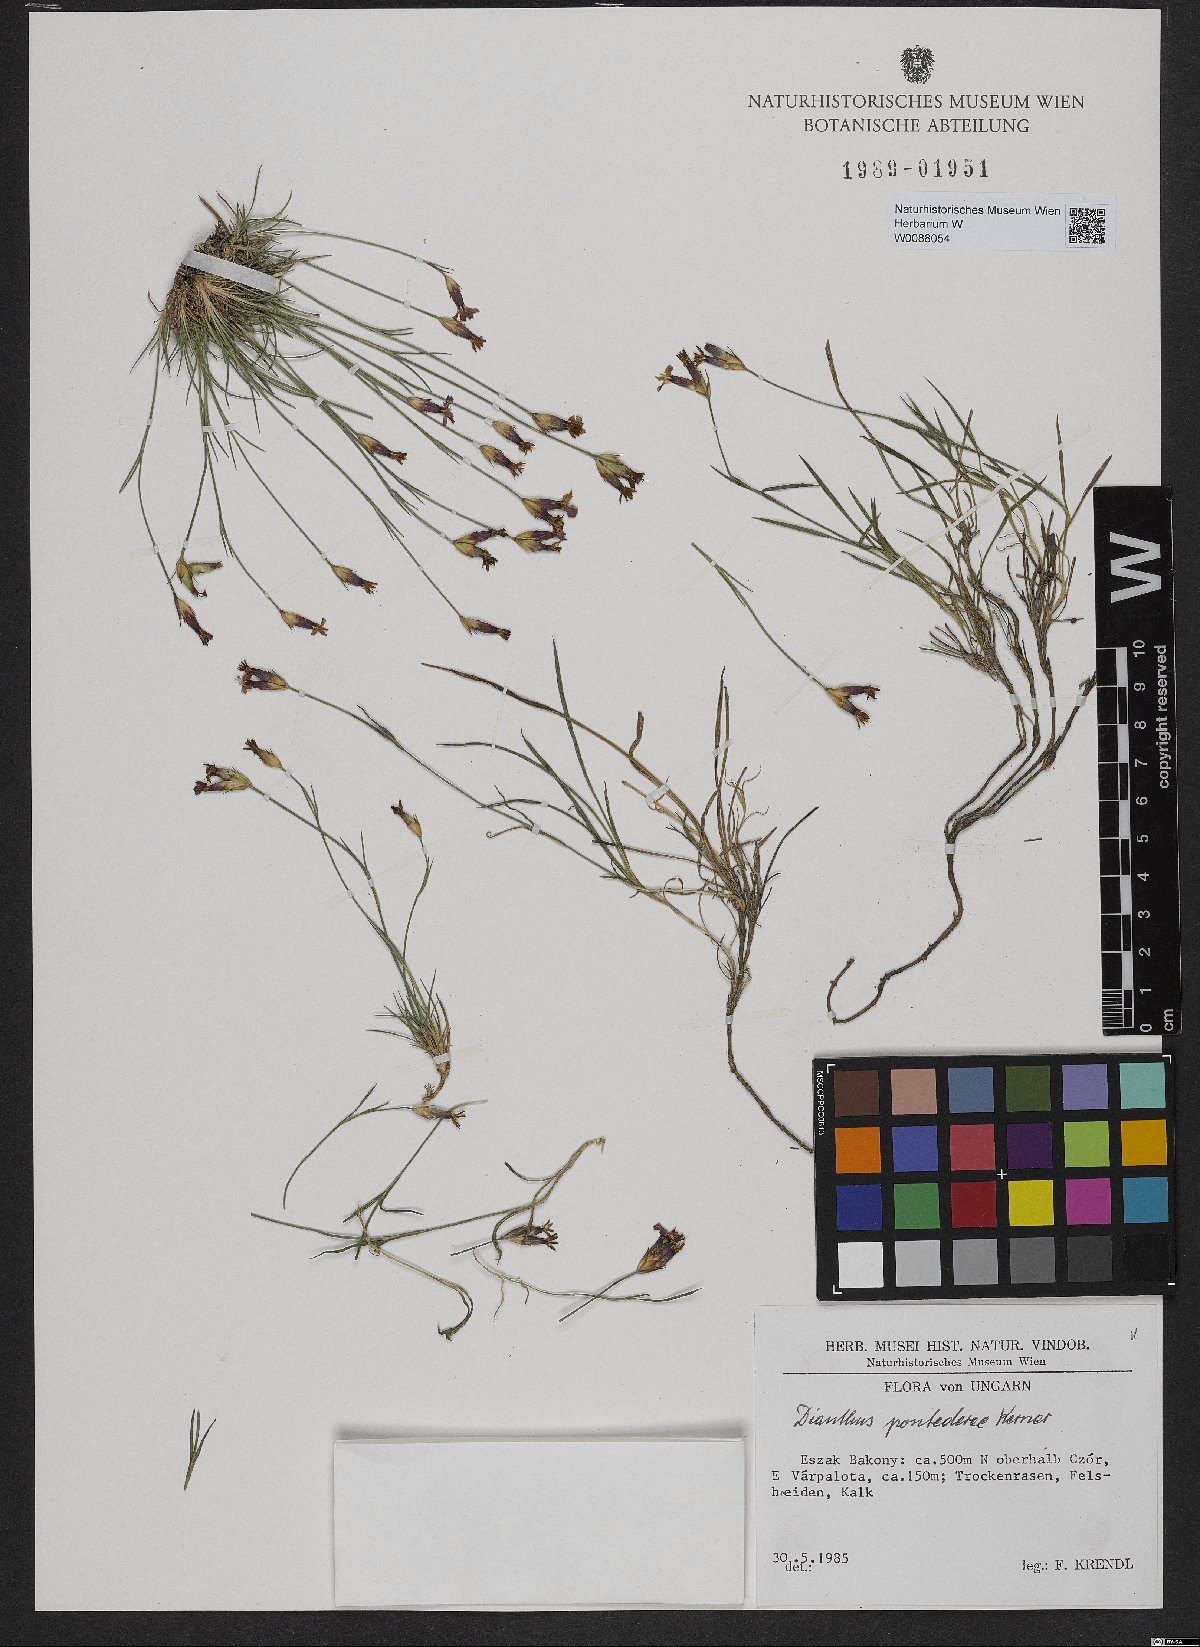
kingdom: Plantae
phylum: Tracheophyta
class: Magnoliopsida
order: Caryophyllales
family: Caryophyllaceae
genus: Dianthus
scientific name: Dianthus pontederae
